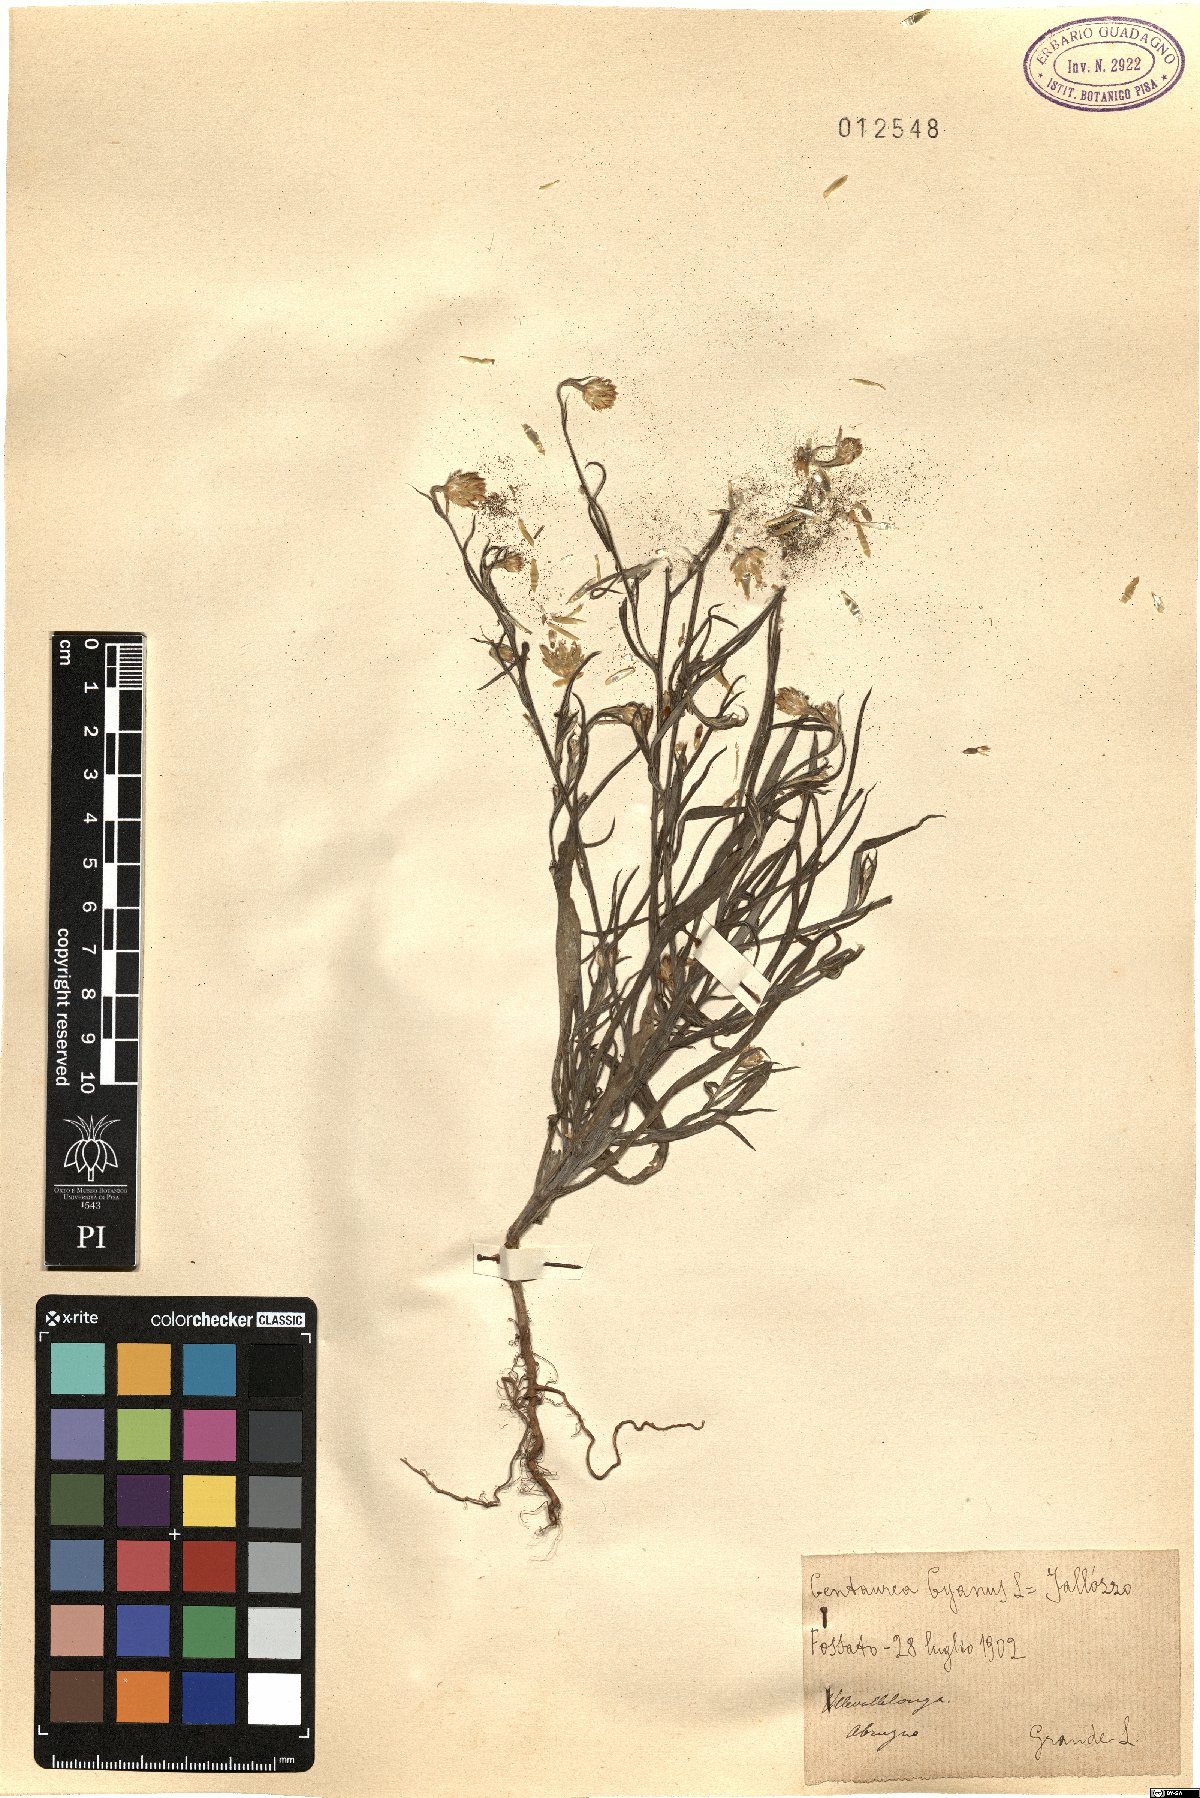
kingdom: Plantae
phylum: Tracheophyta
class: Magnoliopsida
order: Asterales
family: Asteraceae
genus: Centaurea
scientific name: Centaurea cyanus
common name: Cornflower
